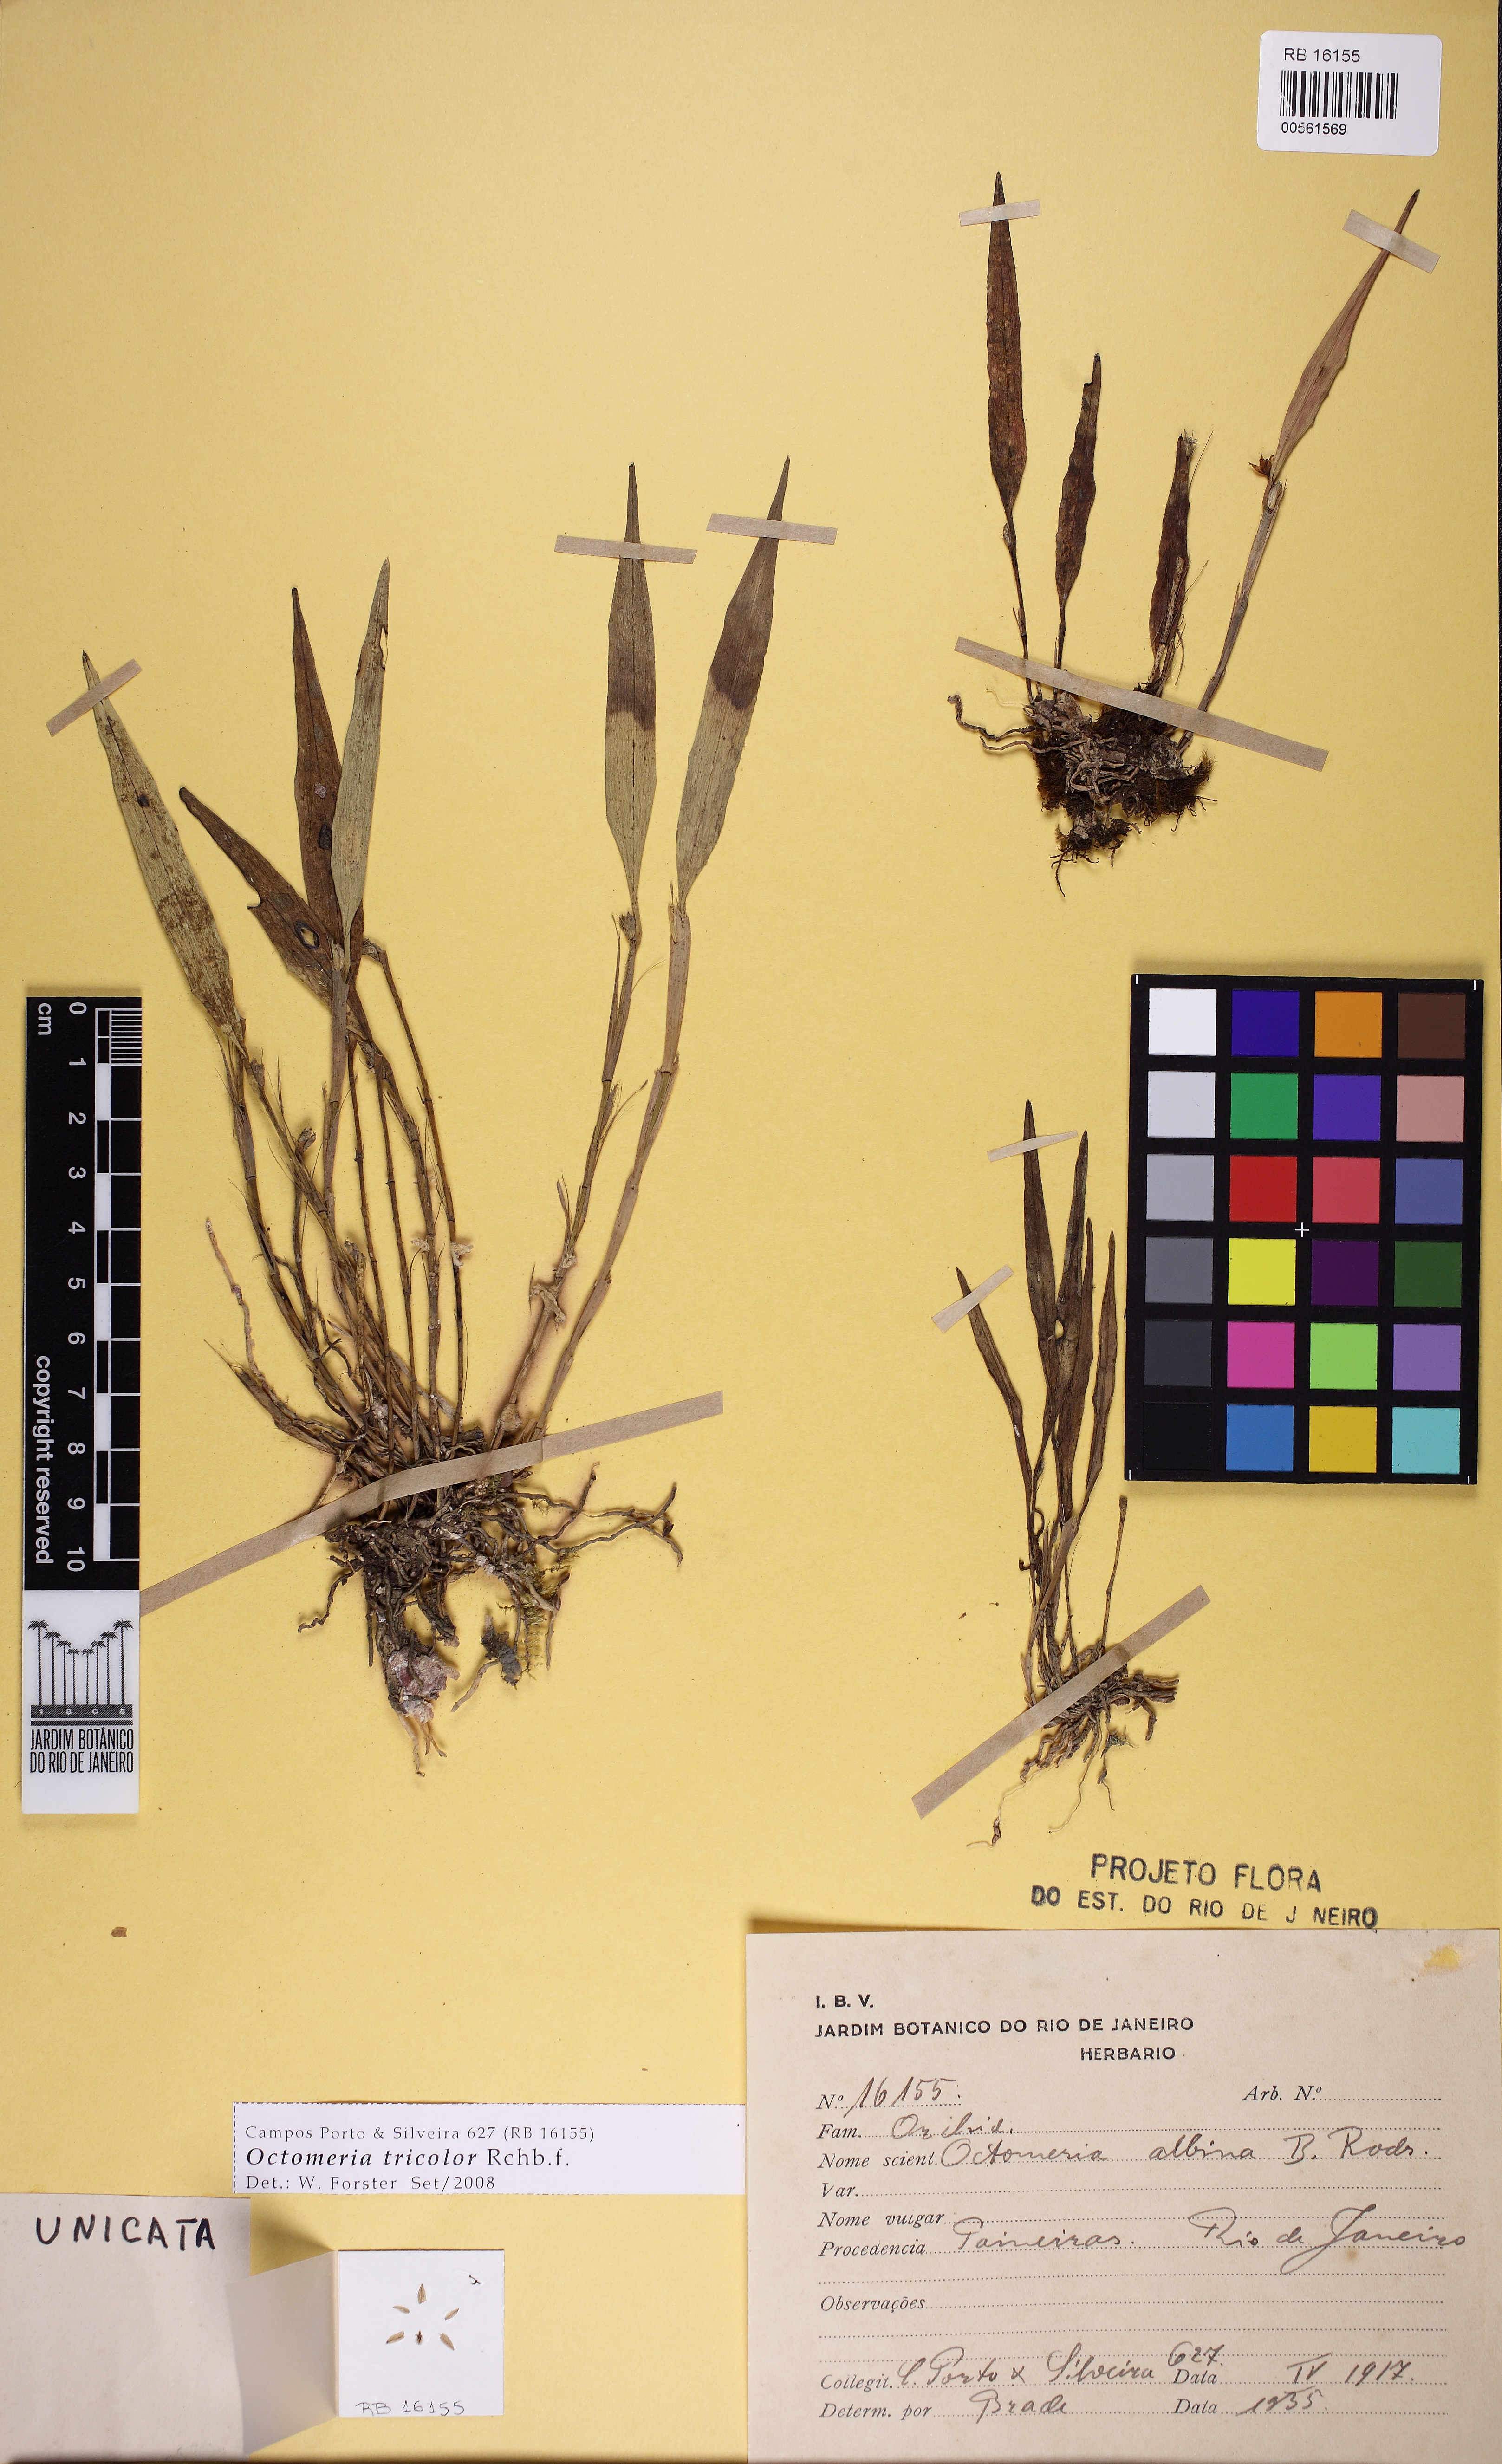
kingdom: Plantae
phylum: Tracheophyta
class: Liliopsida
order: Asparagales
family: Orchidaceae
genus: Octomeria
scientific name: Octomeria tricolor
